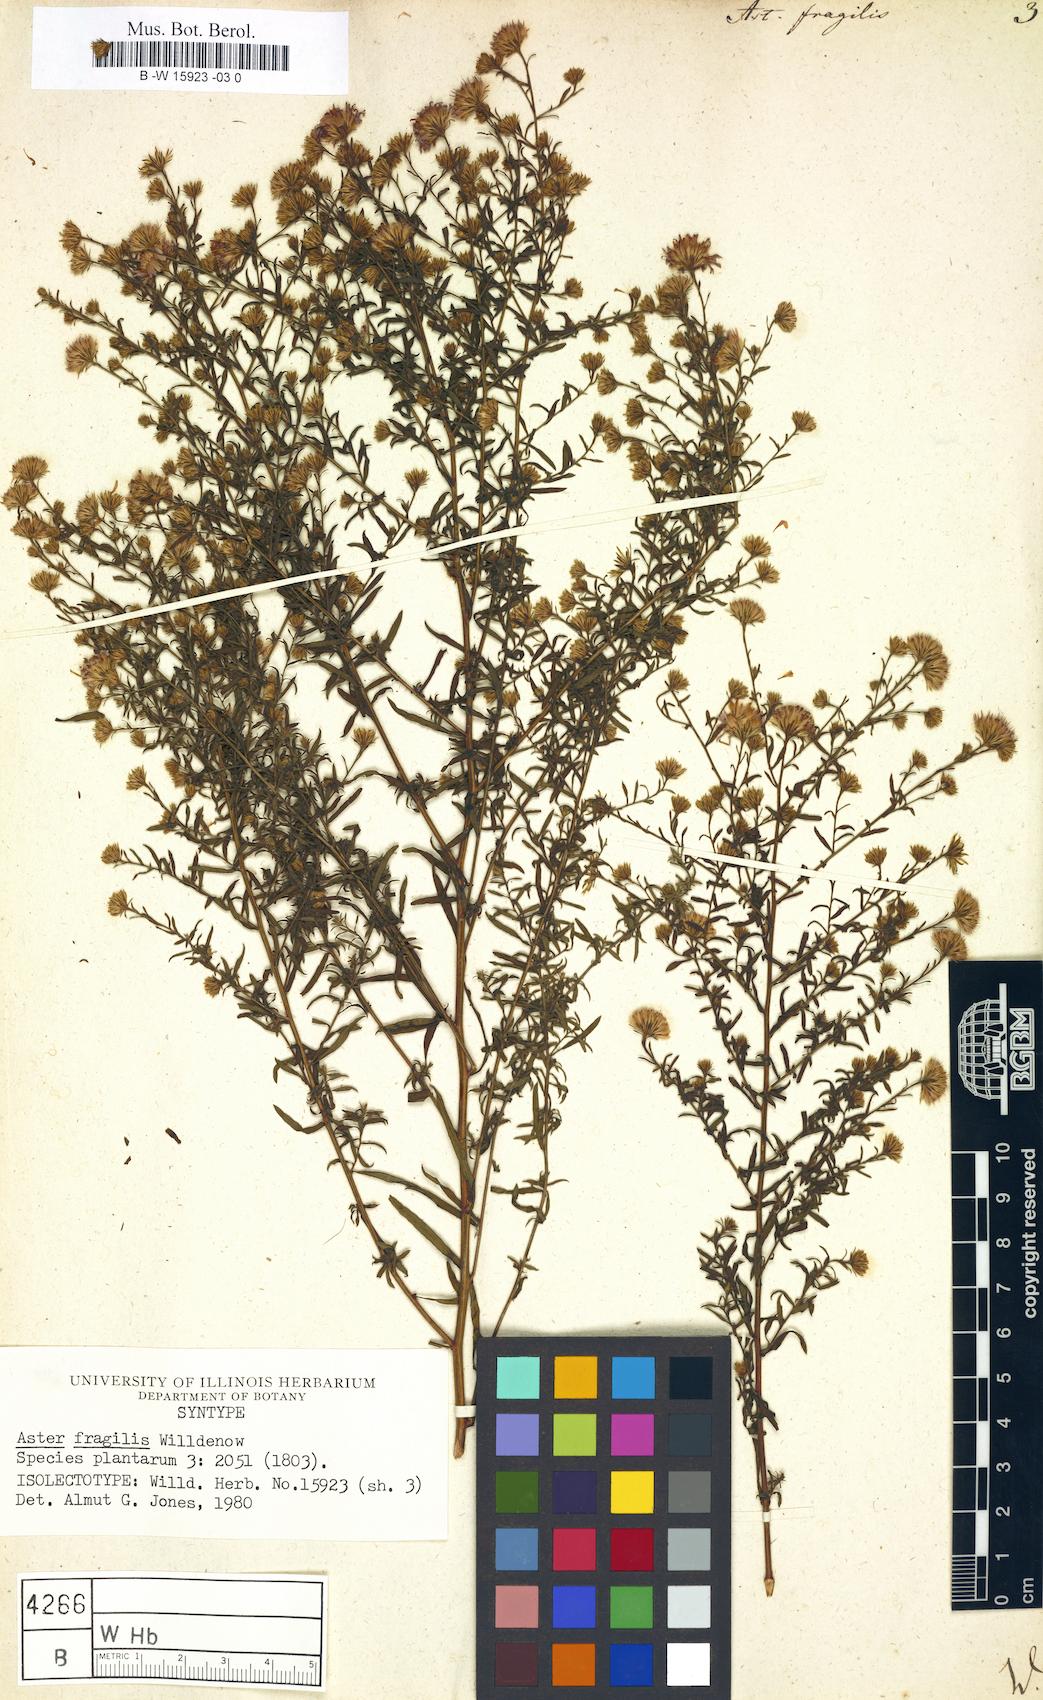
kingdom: Plantae
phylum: Tracheophyta
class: Magnoliopsida
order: Asterales
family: Asteraceae
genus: Aster
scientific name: Aster fragilis
